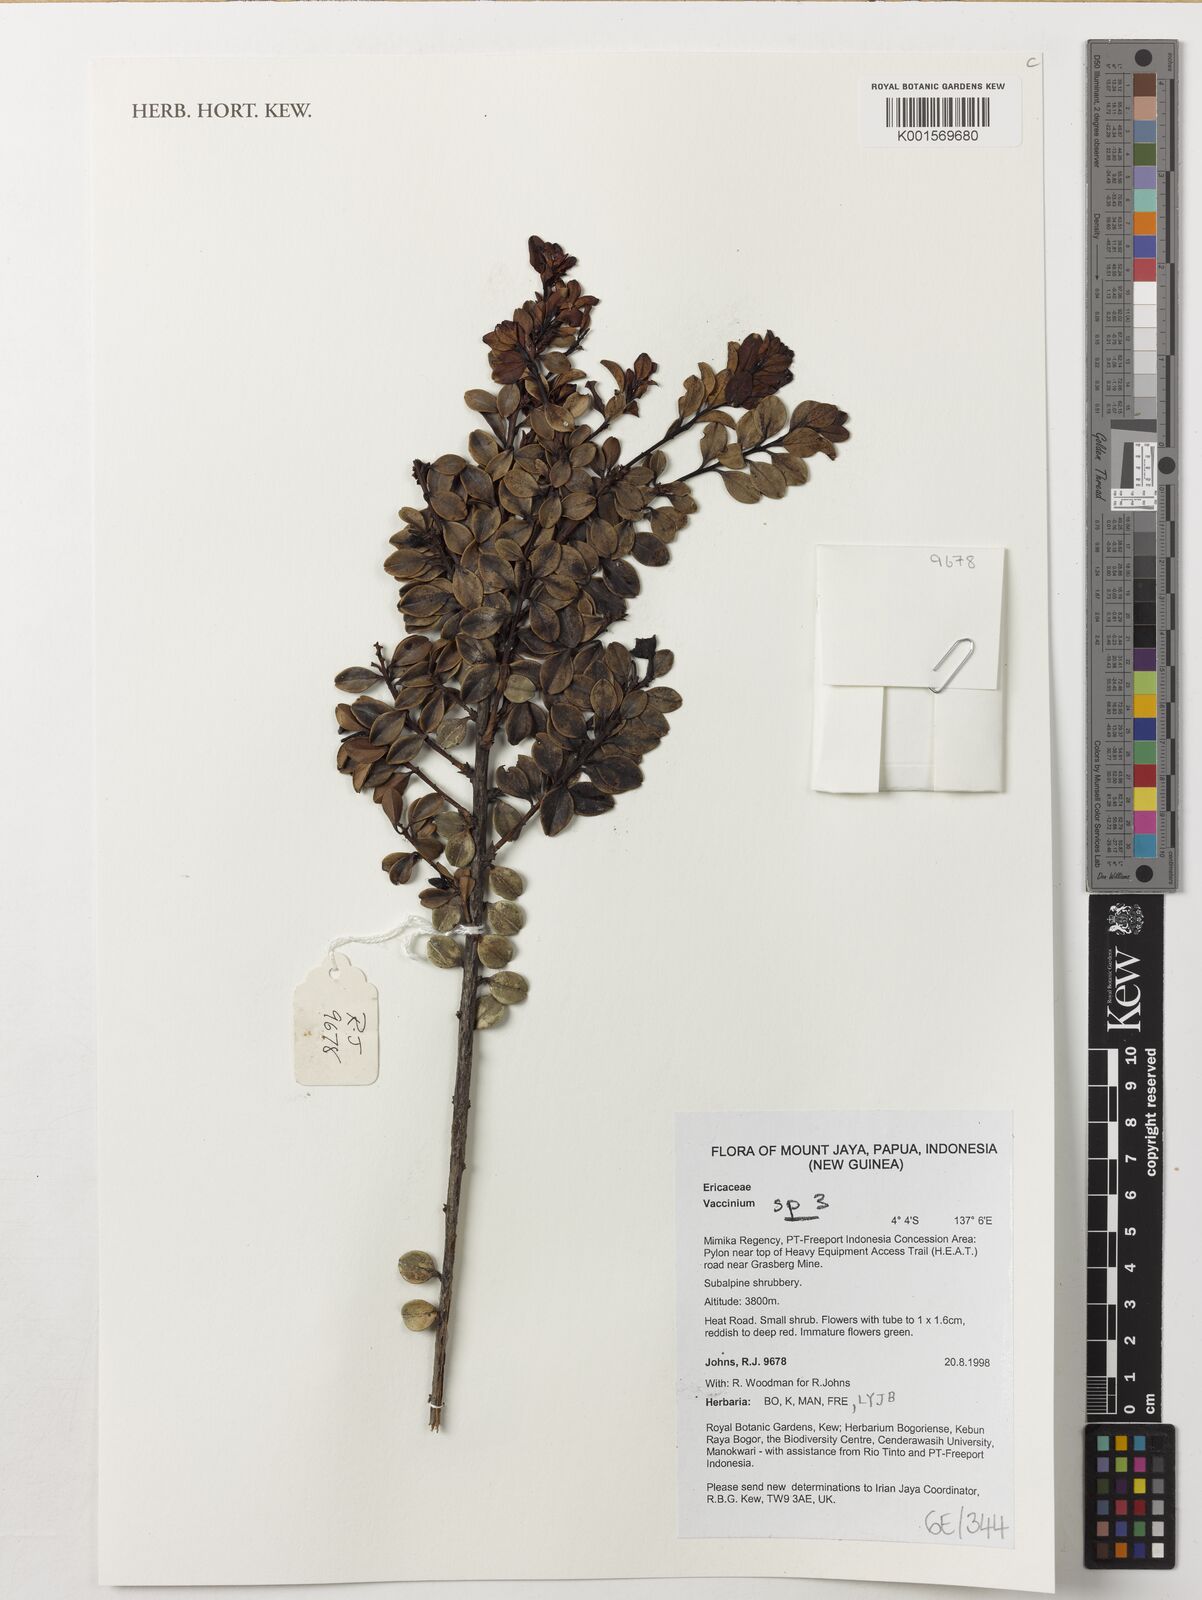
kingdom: Plantae
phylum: Tracheophyta
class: Magnoliopsida
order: Ericales
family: Ericaceae
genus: Vaccinium
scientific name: Vaccinium
